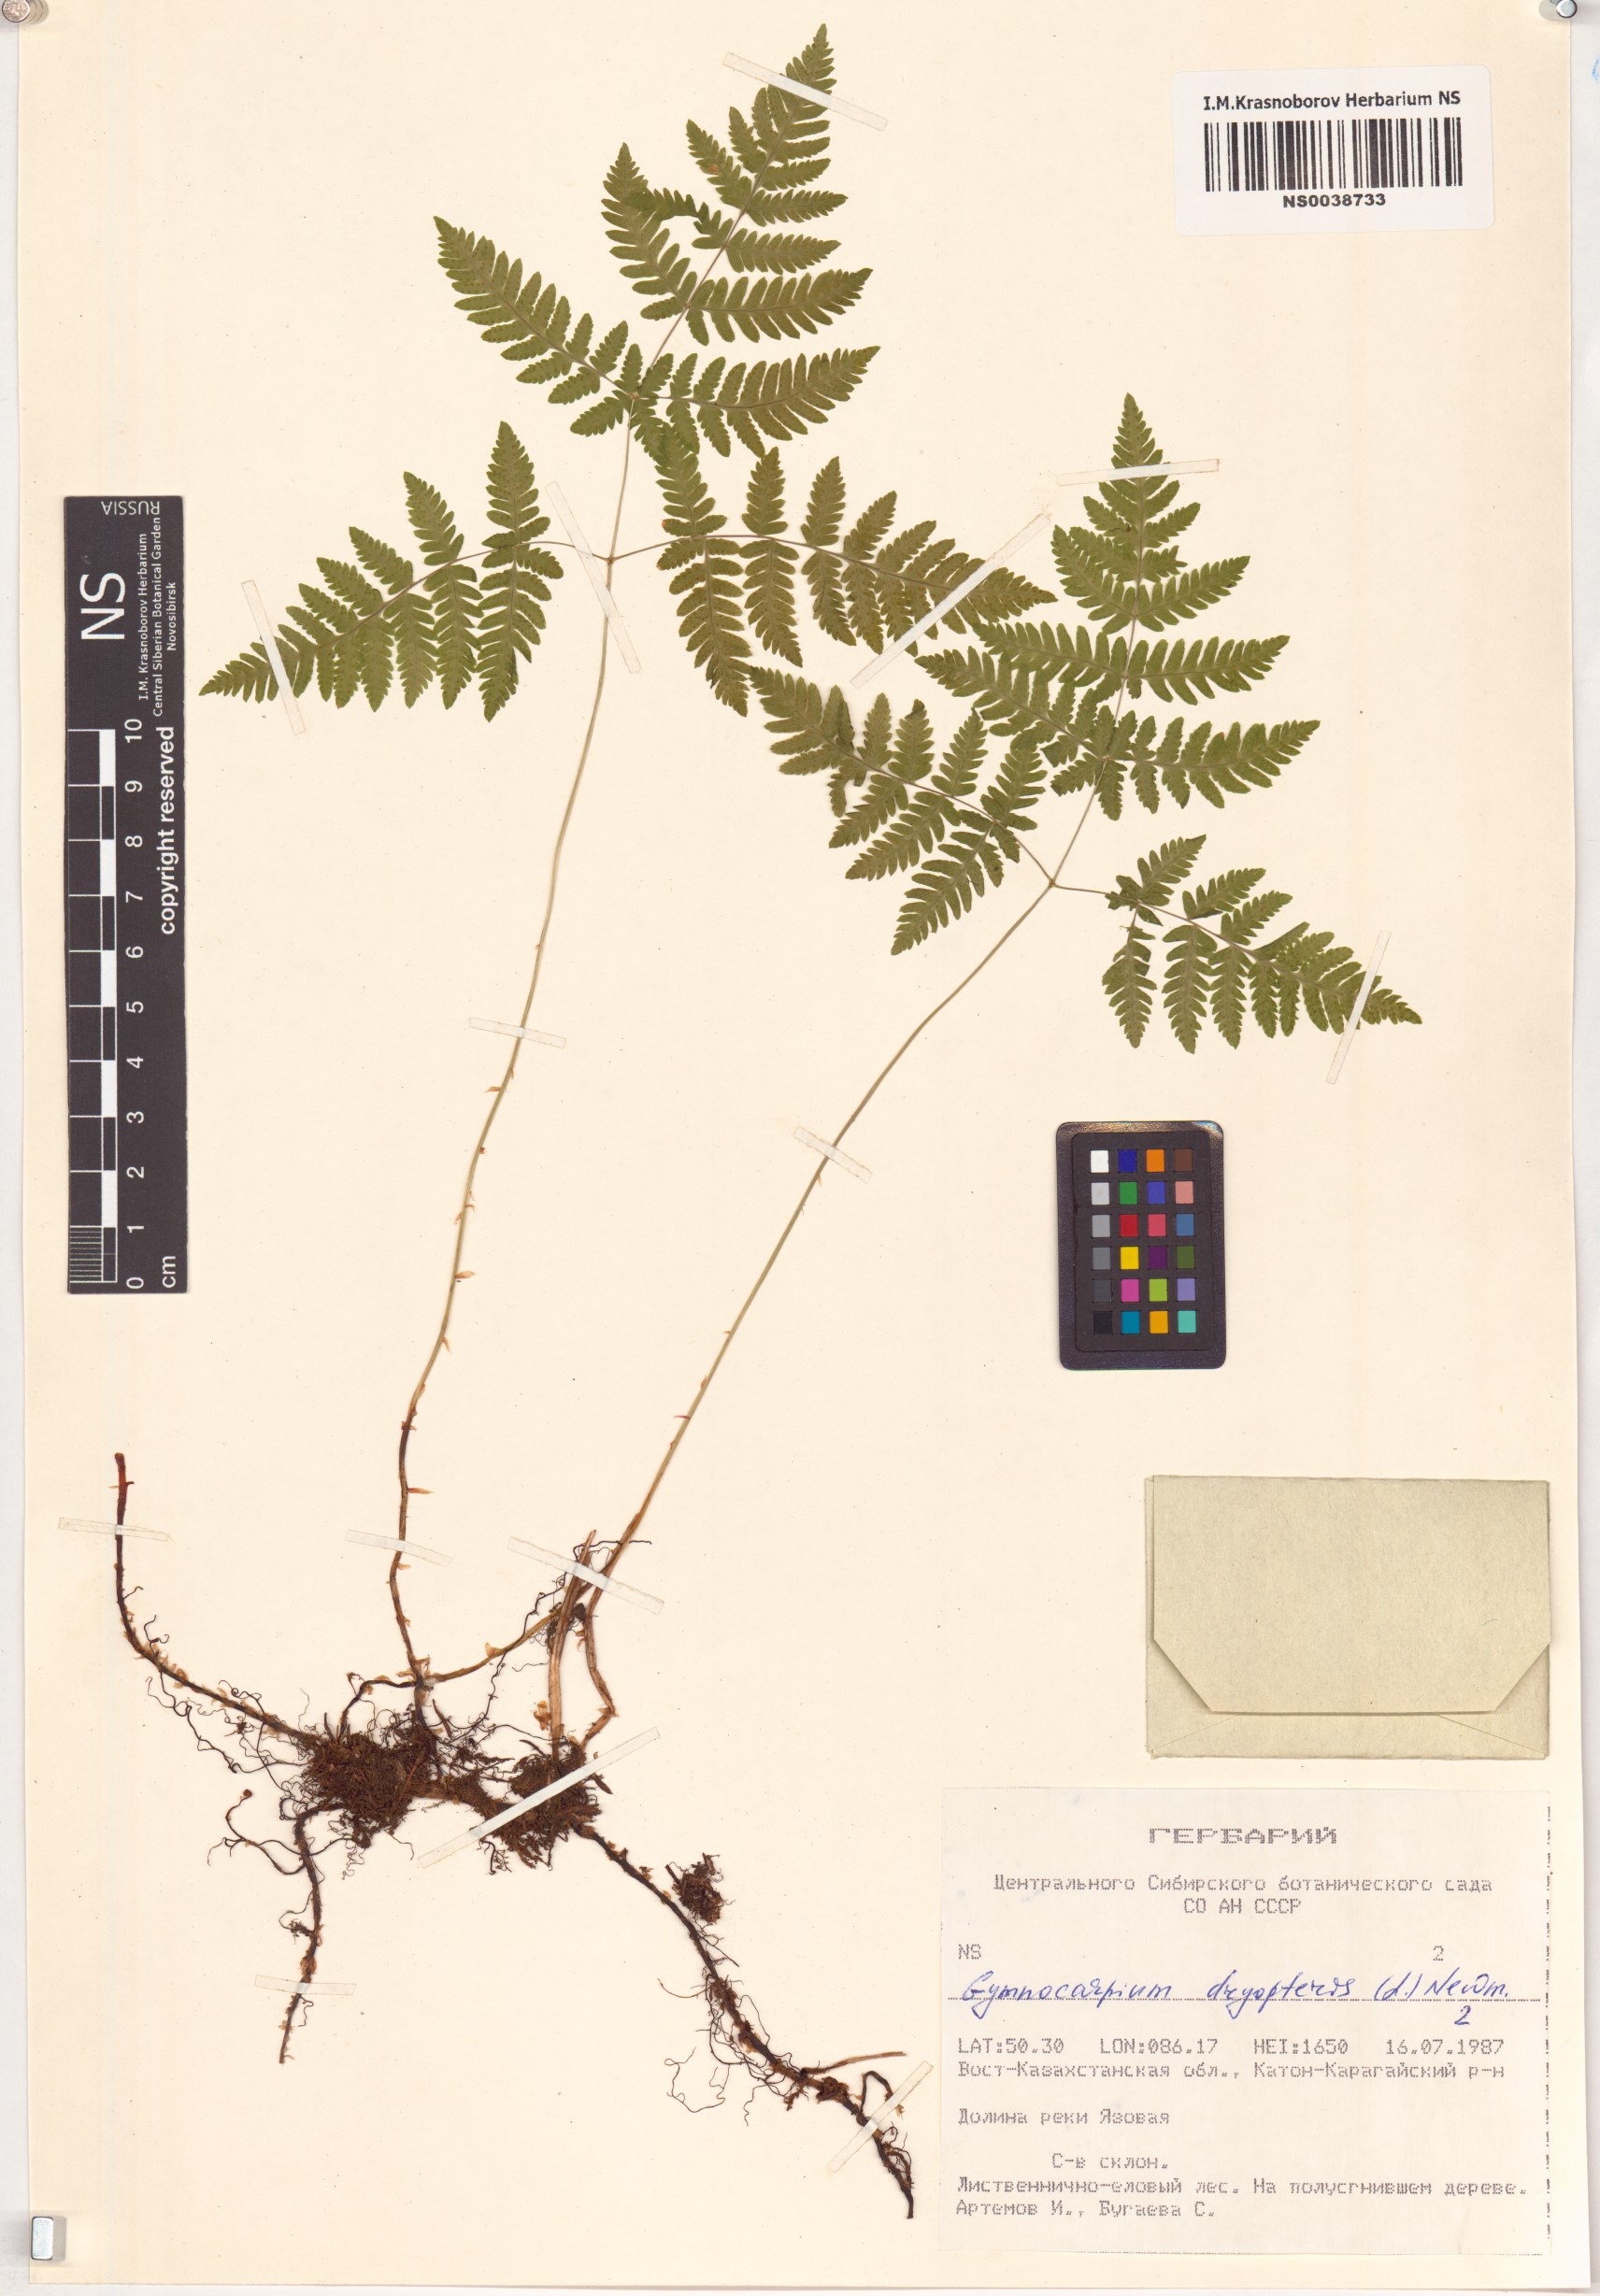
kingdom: Plantae
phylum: Tracheophyta
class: Polypodiopsida
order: Polypodiales
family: Cystopteridaceae
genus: Gymnocarpium
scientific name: Gymnocarpium dryopteris
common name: Oak fern
